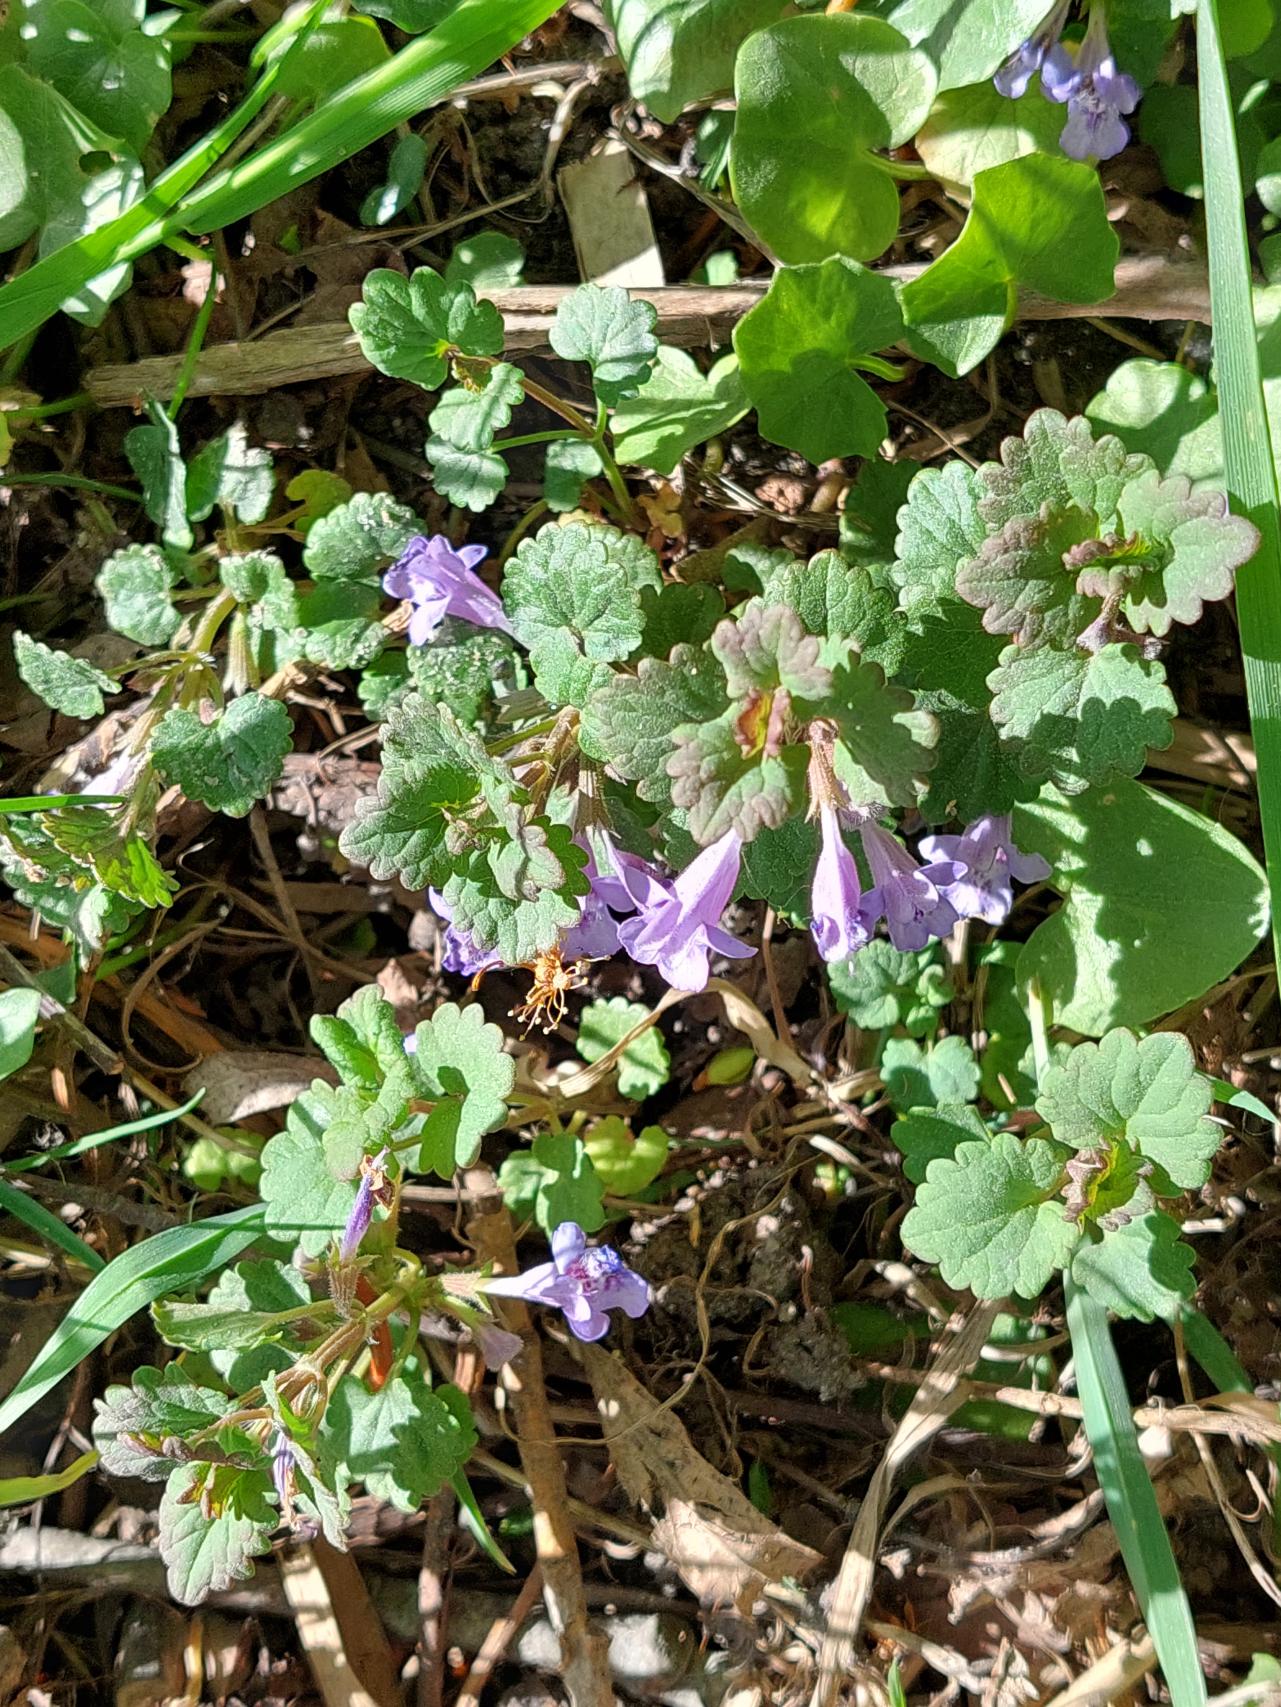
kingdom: Plantae
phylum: Tracheophyta
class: Magnoliopsida
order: Lamiales
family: Lamiaceae
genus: Glechoma
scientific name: Glechoma hederacea
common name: Korsknap
